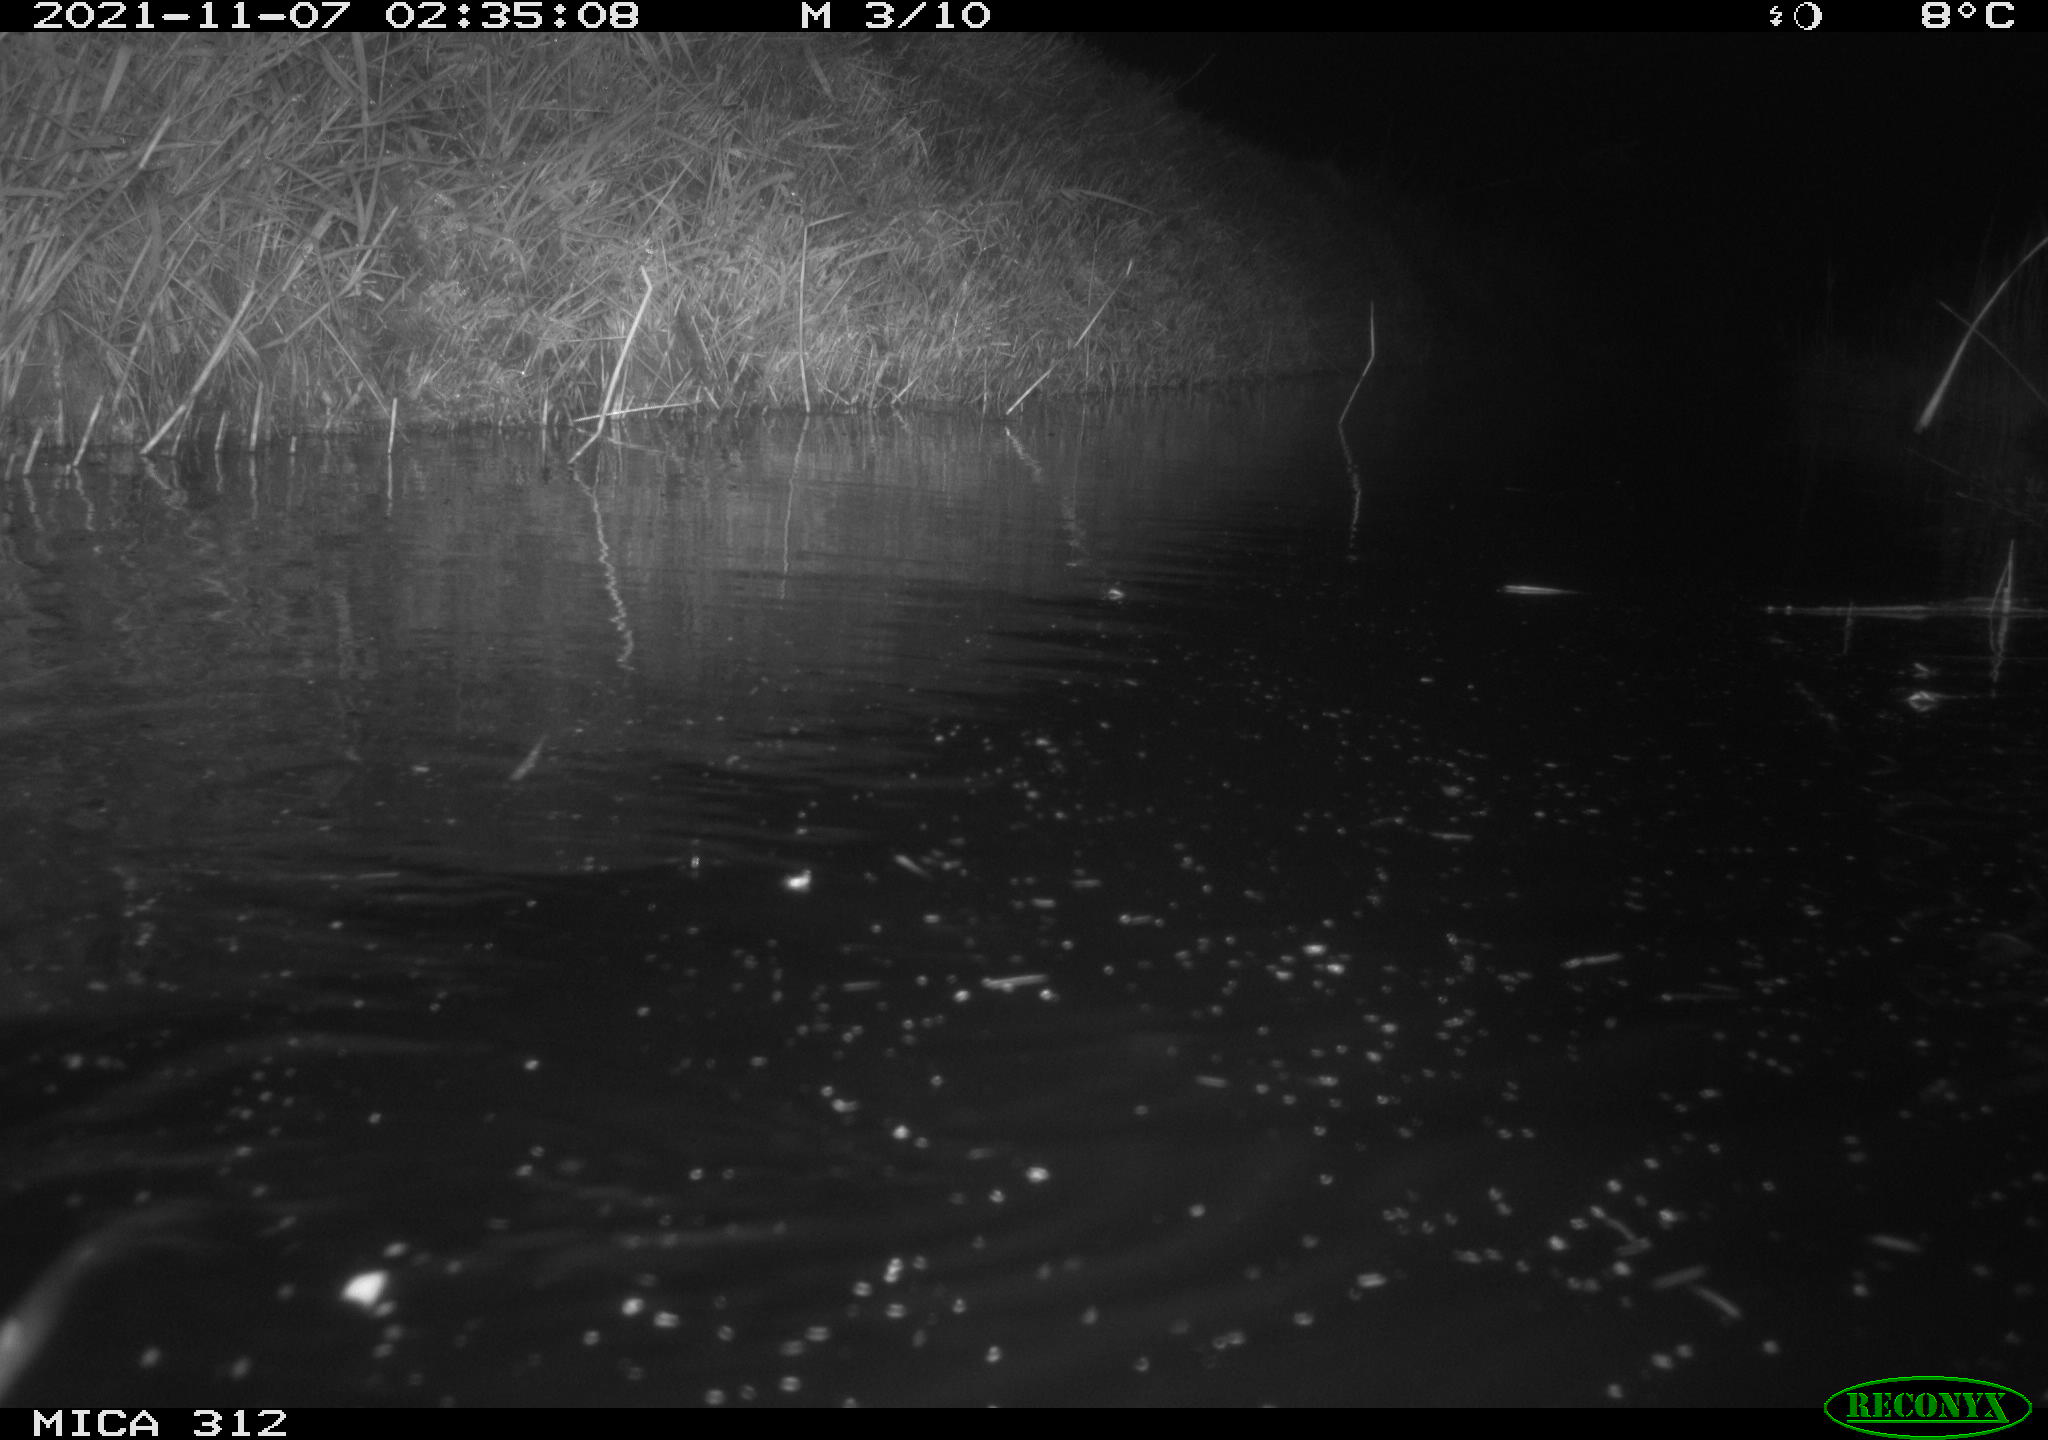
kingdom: Animalia
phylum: Chordata
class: Mammalia
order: Rodentia
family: Cricetidae
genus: Ondatra
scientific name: Ondatra zibethicus
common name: Muskrat
